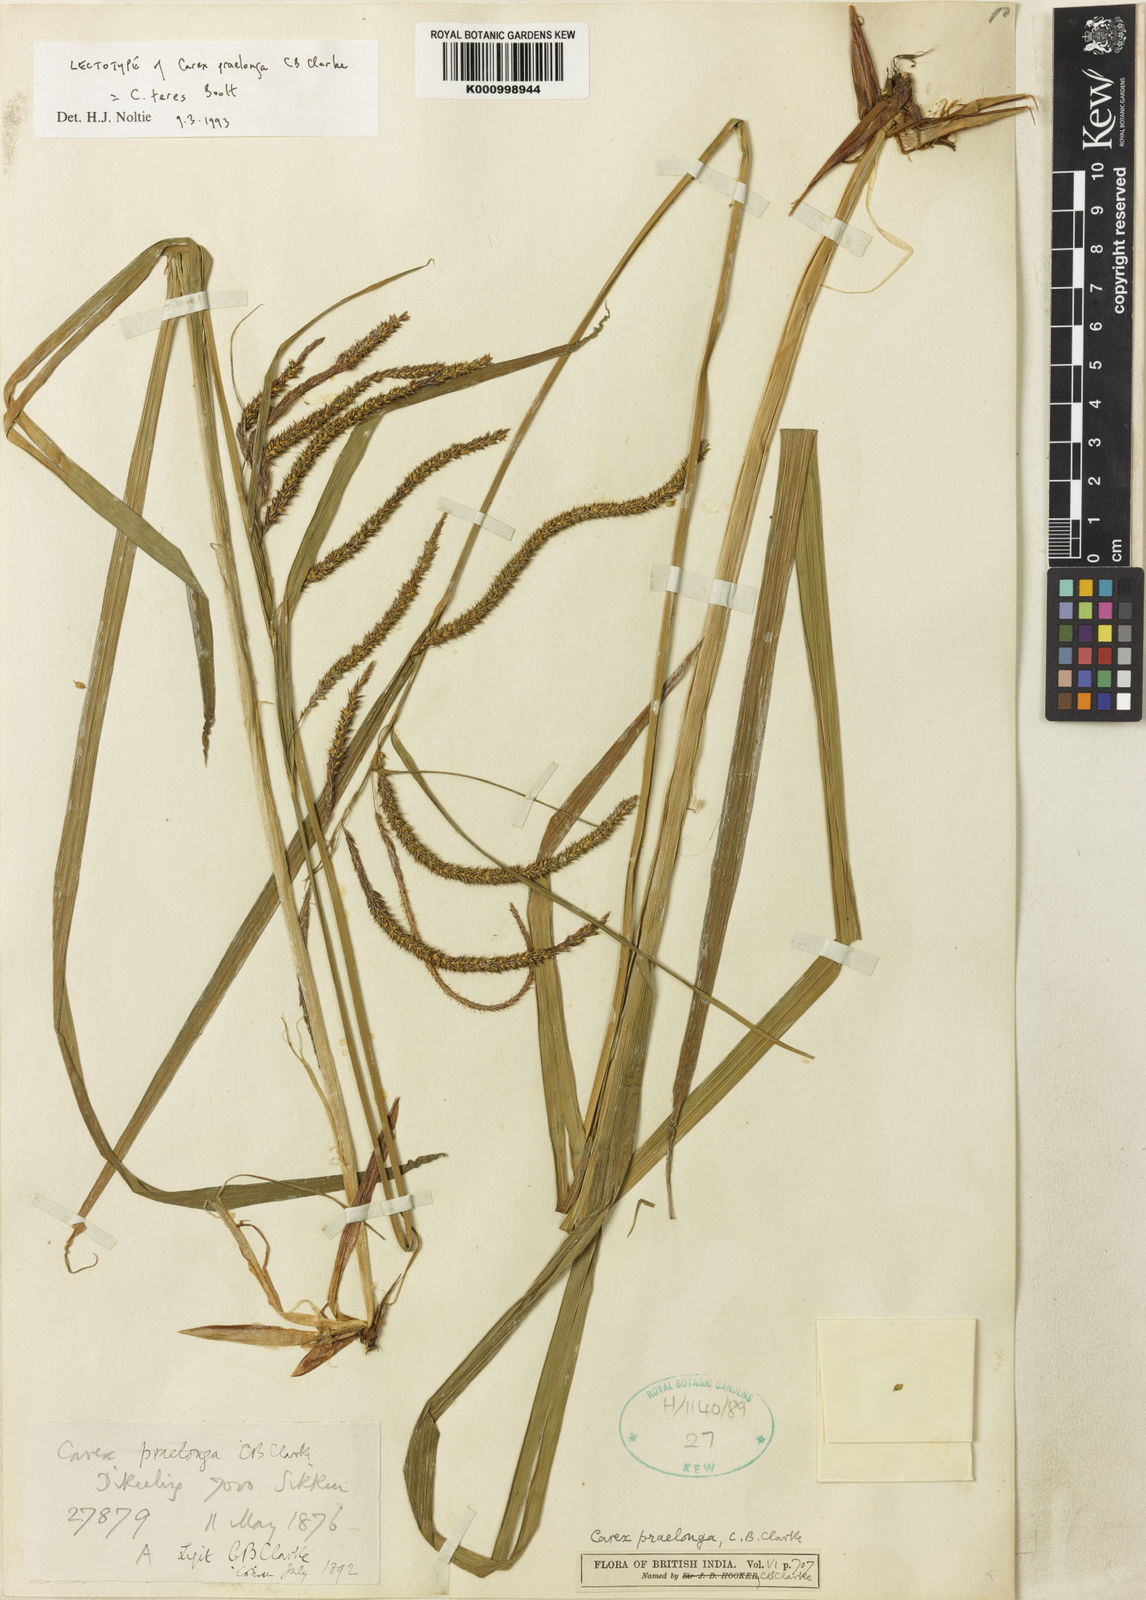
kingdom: Plantae
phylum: Tracheophyta
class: Liliopsida
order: Poales
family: Cyperaceae
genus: Carex
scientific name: Carex praelonga
